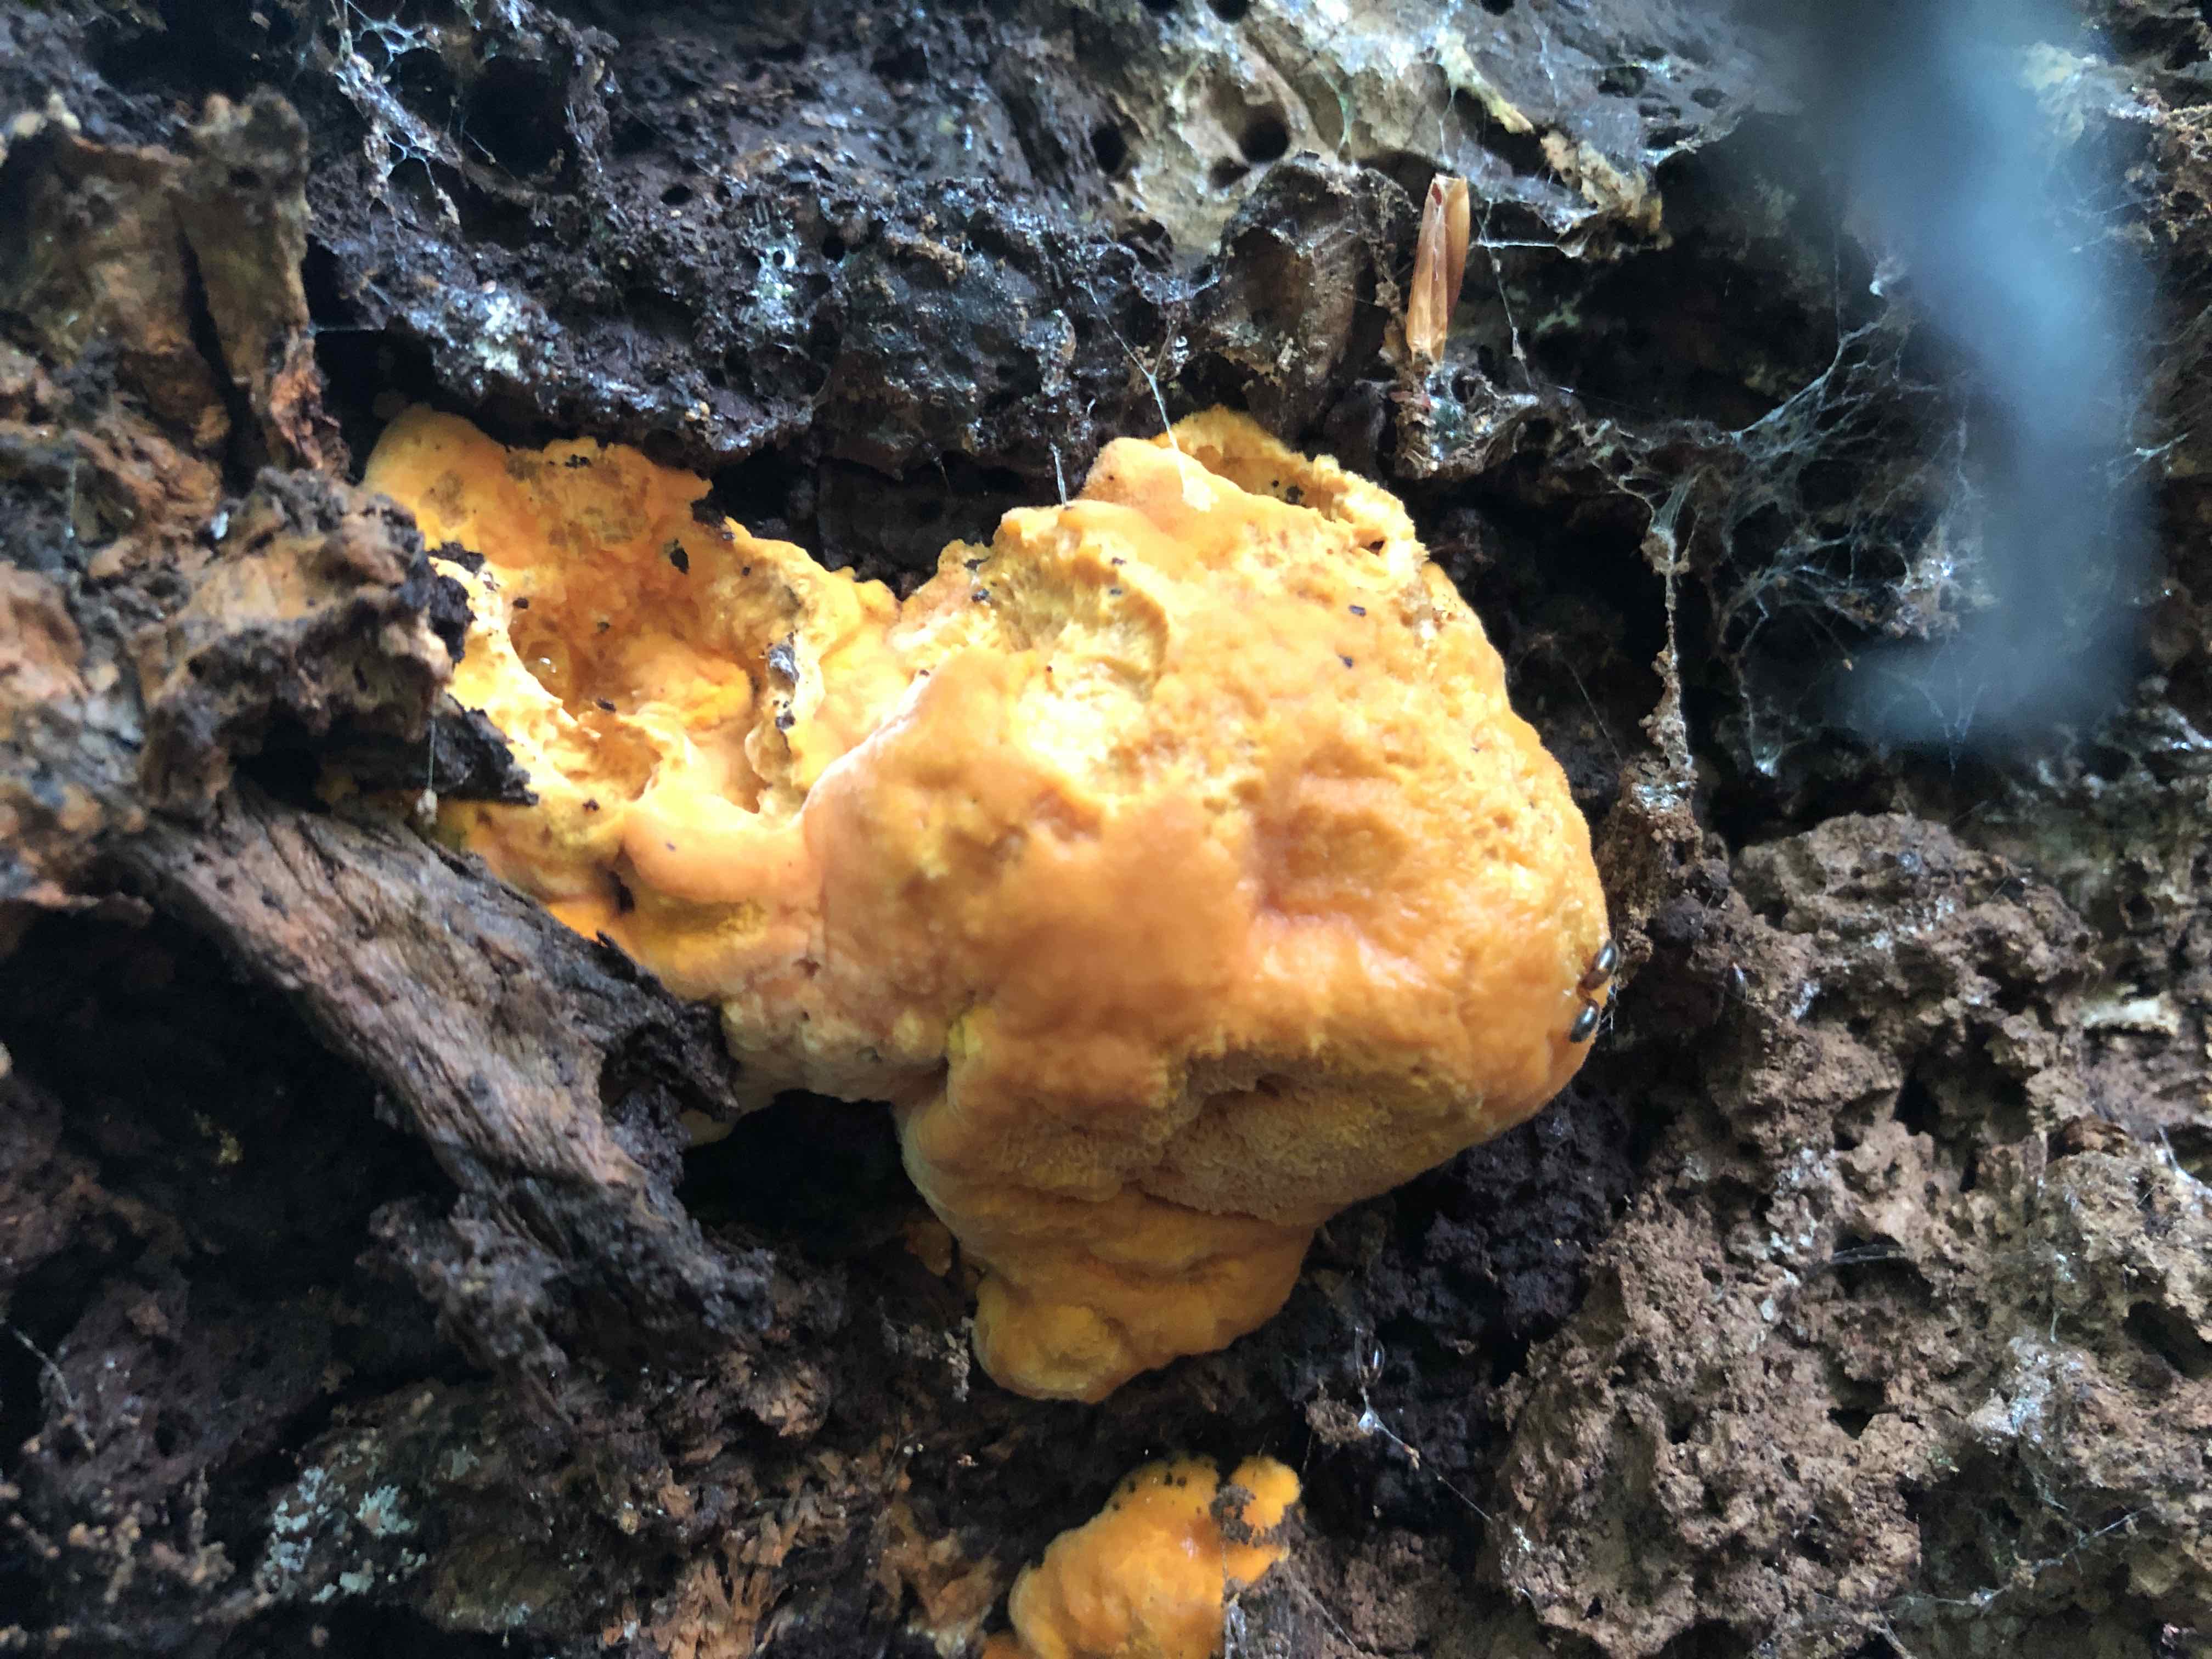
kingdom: Fungi
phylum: Basidiomycota
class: Agaricomycetes
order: Polyporales
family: Phanerochaetaceae
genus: Hapalopilus
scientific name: Hapalopilus croceus
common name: safrangul pragtporesvamp
